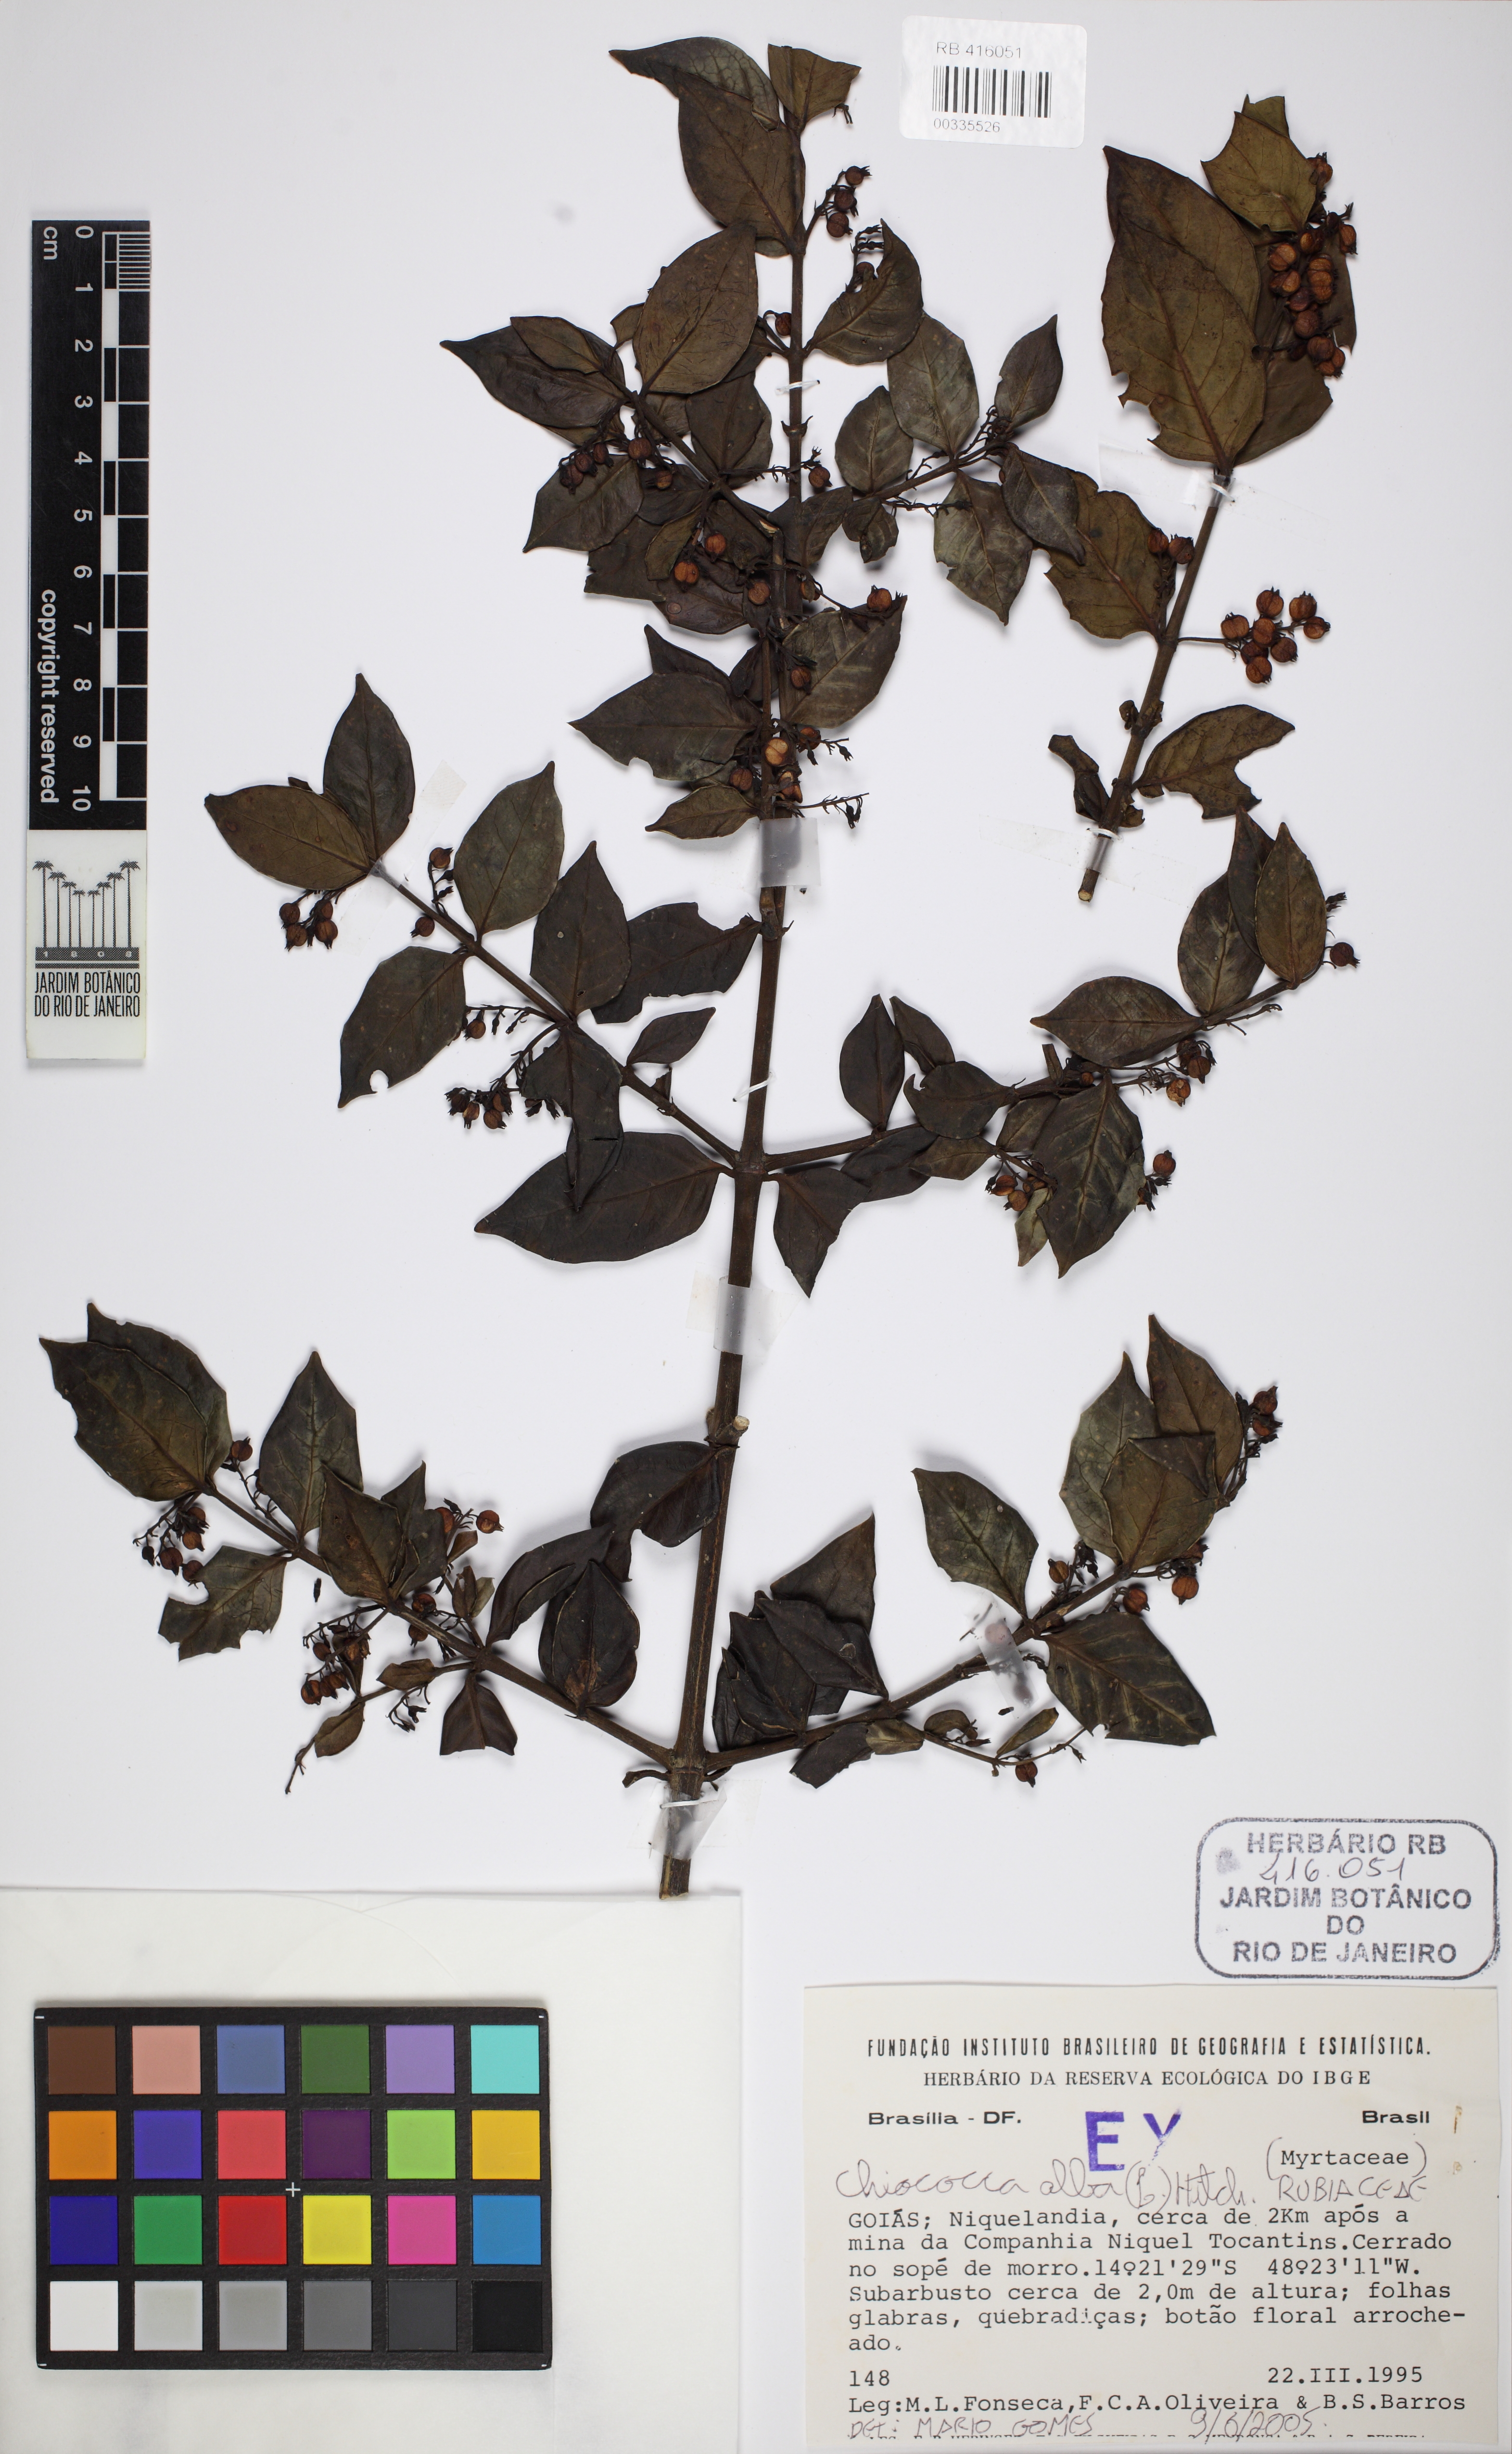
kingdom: Plantae
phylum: Tracheophyta
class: Magnoliopsida
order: Gentianales
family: Rubiaceae
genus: Chiococca
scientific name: Chiococca alba
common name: Snowberry
